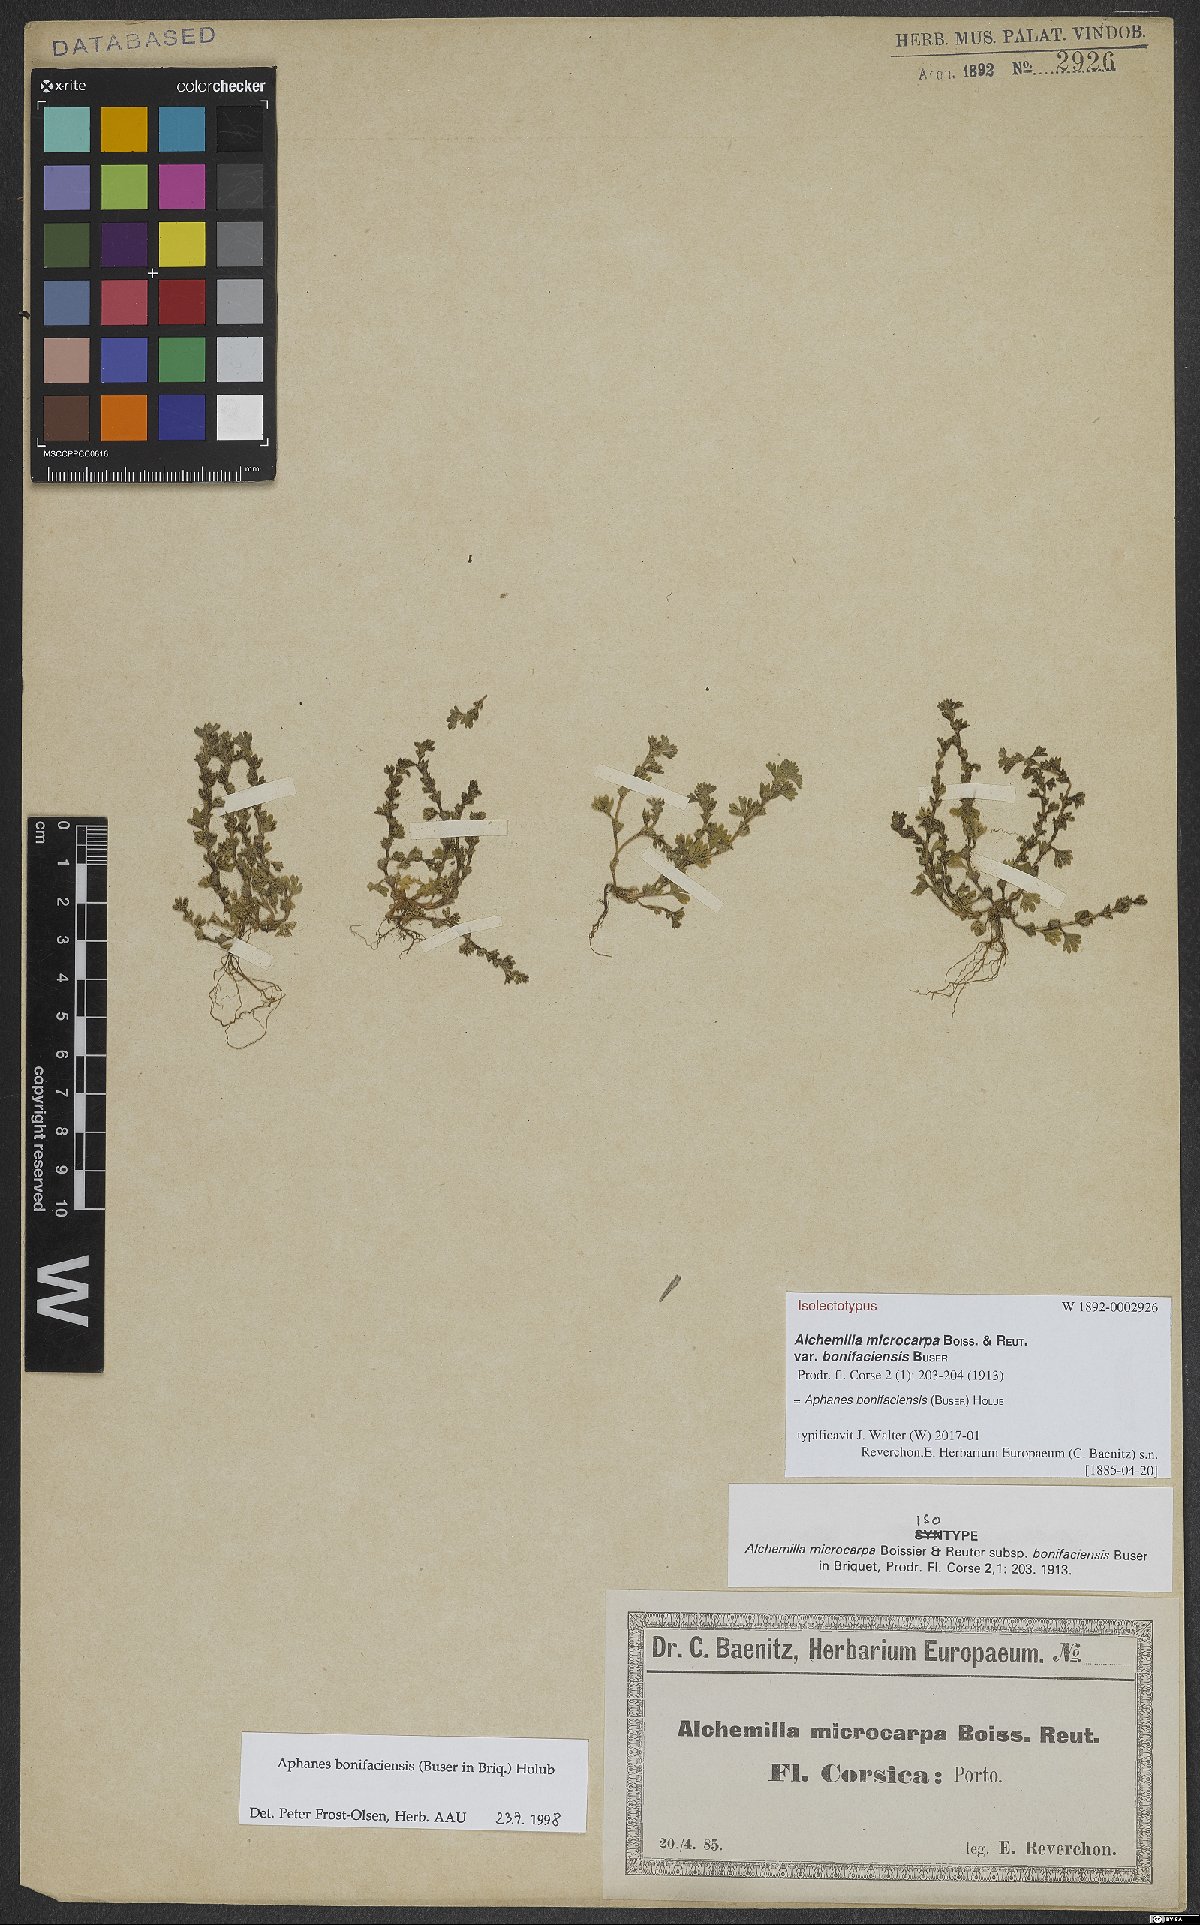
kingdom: Plantae
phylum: Tracheophyta
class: Magnoliopsida
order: Rosales
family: Rosaceae
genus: Aphanes
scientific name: Aphanes minutiflora
